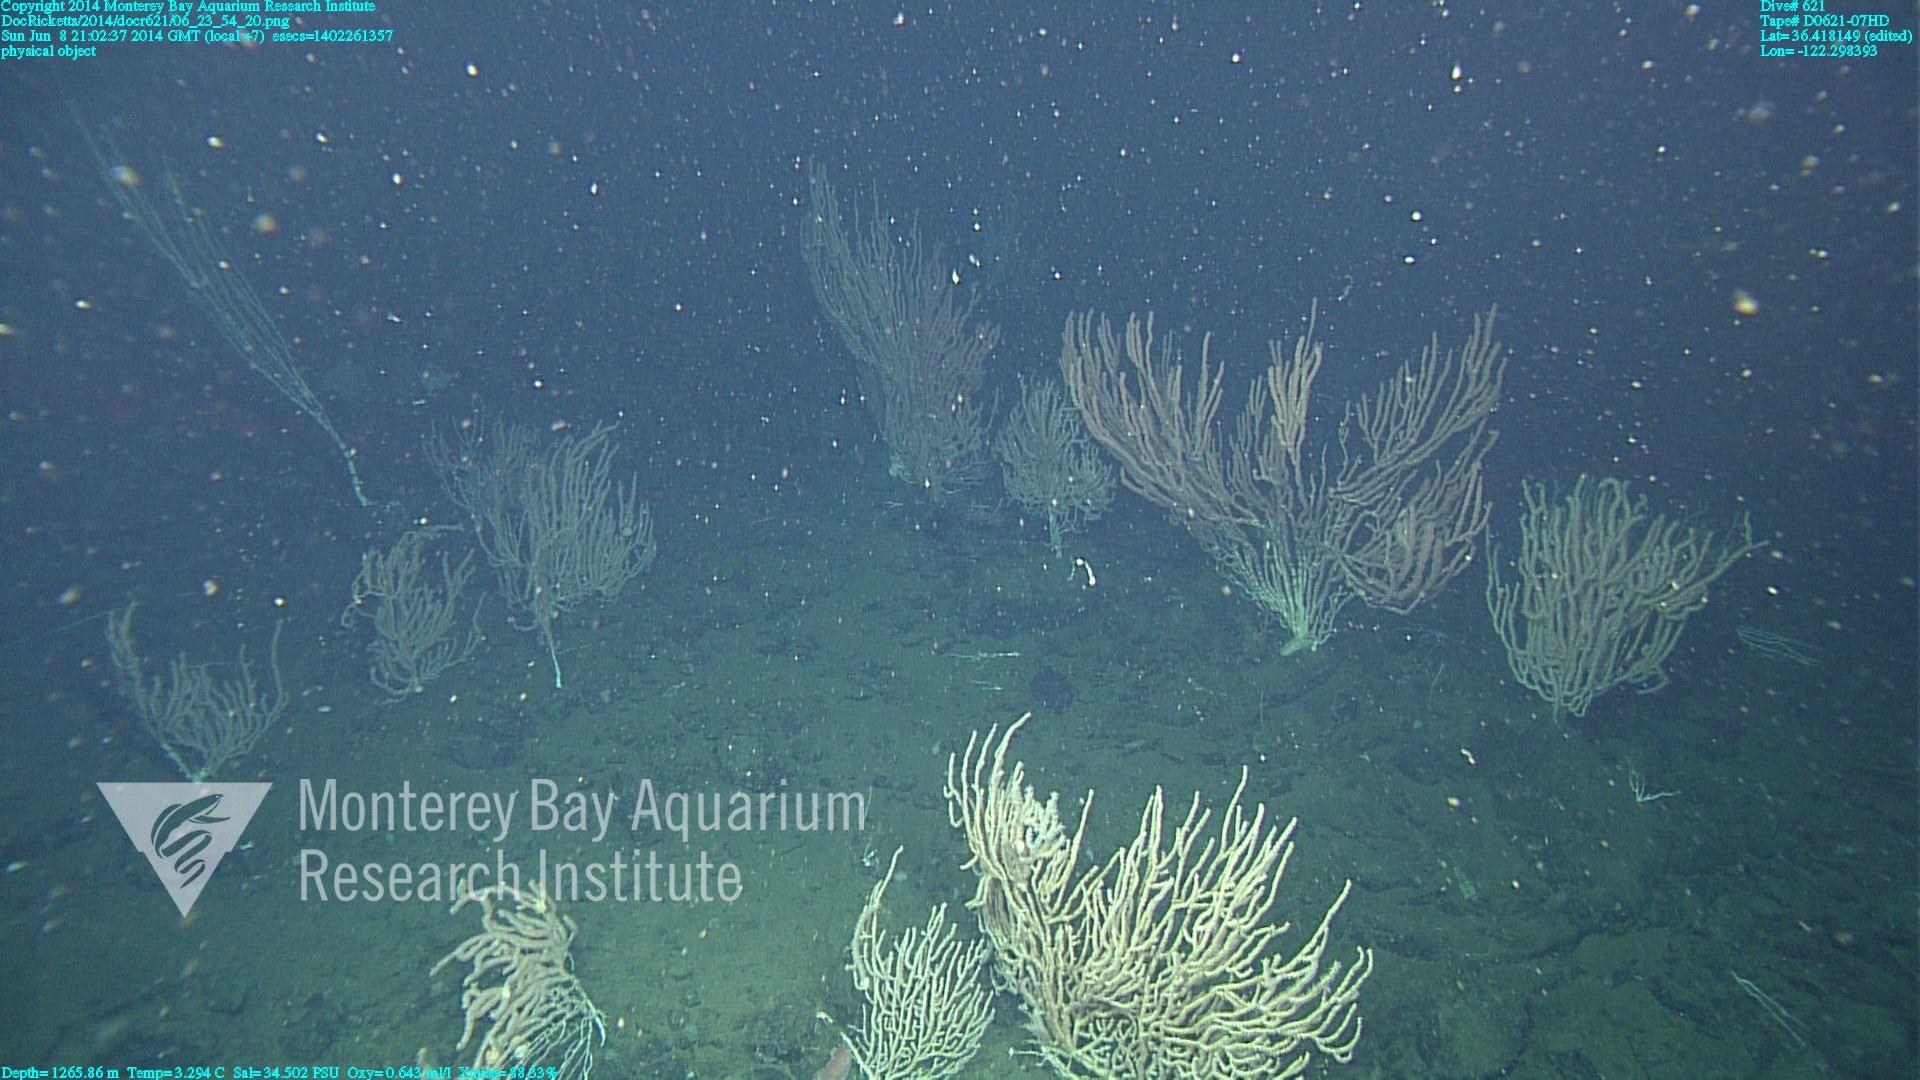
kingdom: Animalia
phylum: Cnidaria
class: Anthozoa
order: Scleralcyonacea
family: Keratoisididae
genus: Keratoisis
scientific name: Keratoisis
